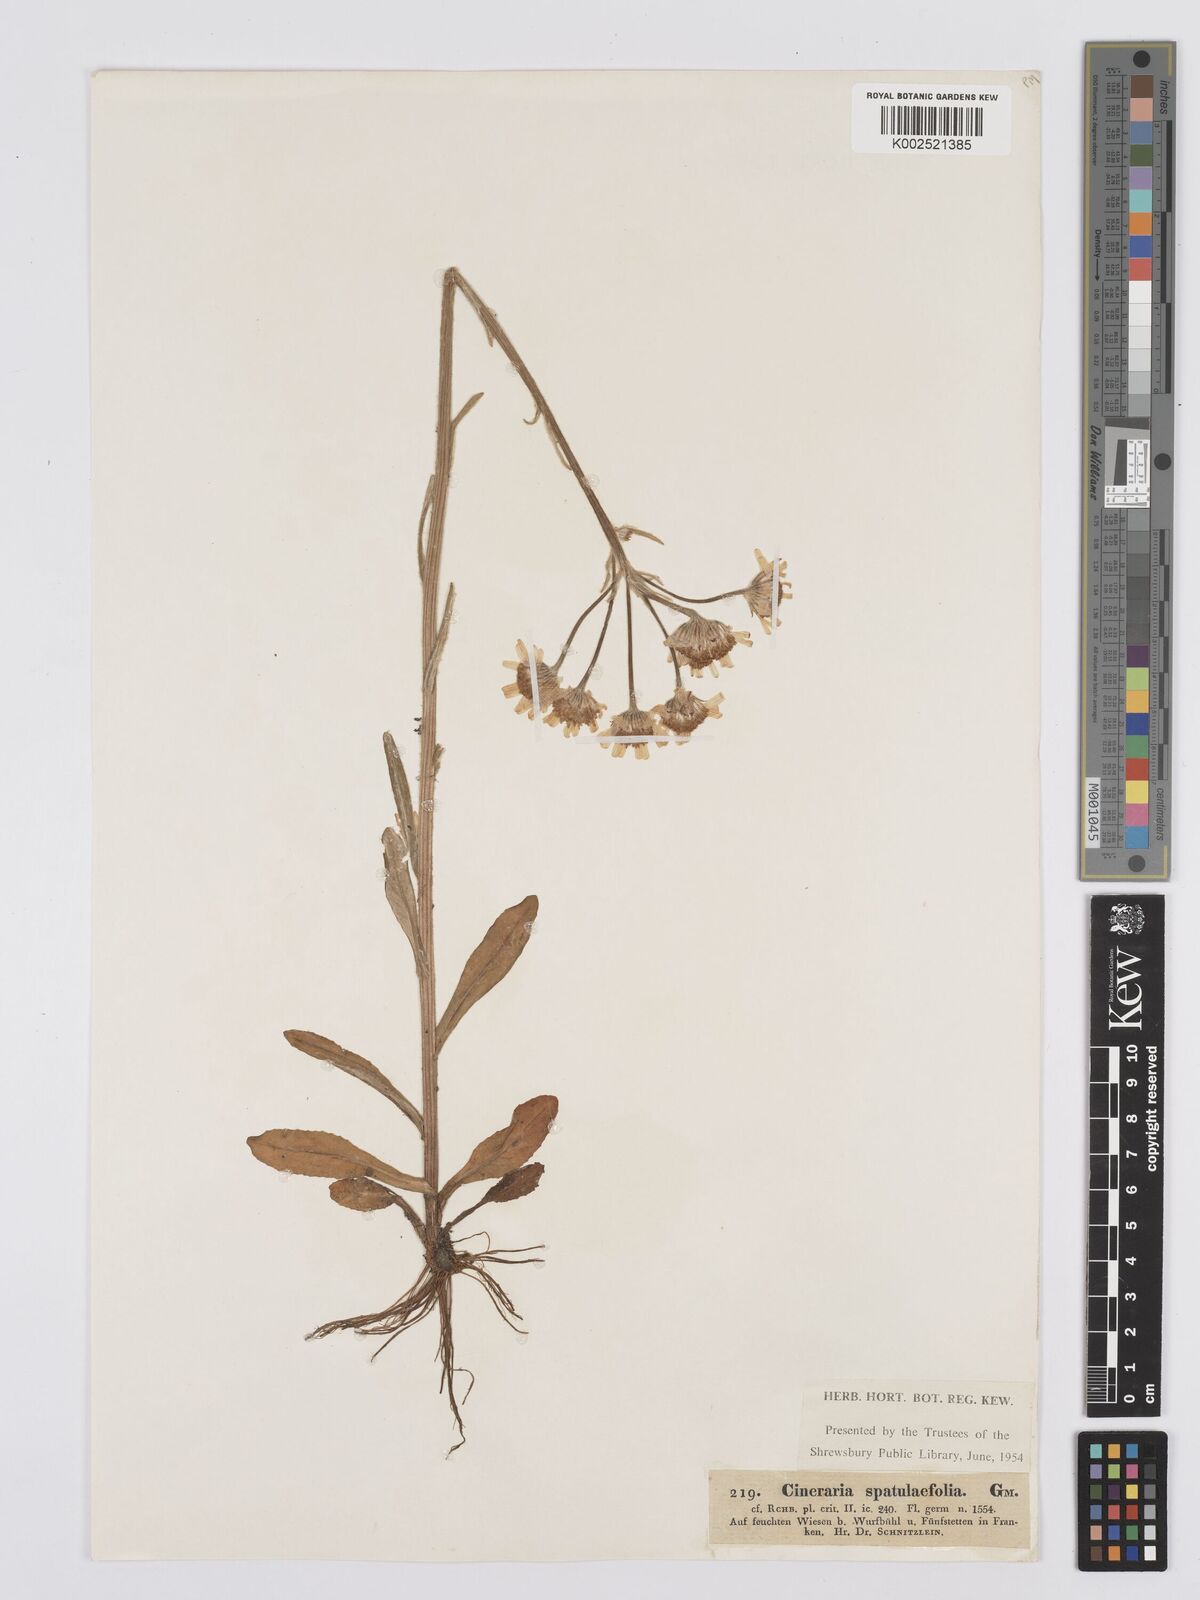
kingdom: Plantae
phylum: Tracheophyta
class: Magnoliopsida
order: Asterales
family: Asteraceae
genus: Tephroseris
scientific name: Tephroseris helenitis
